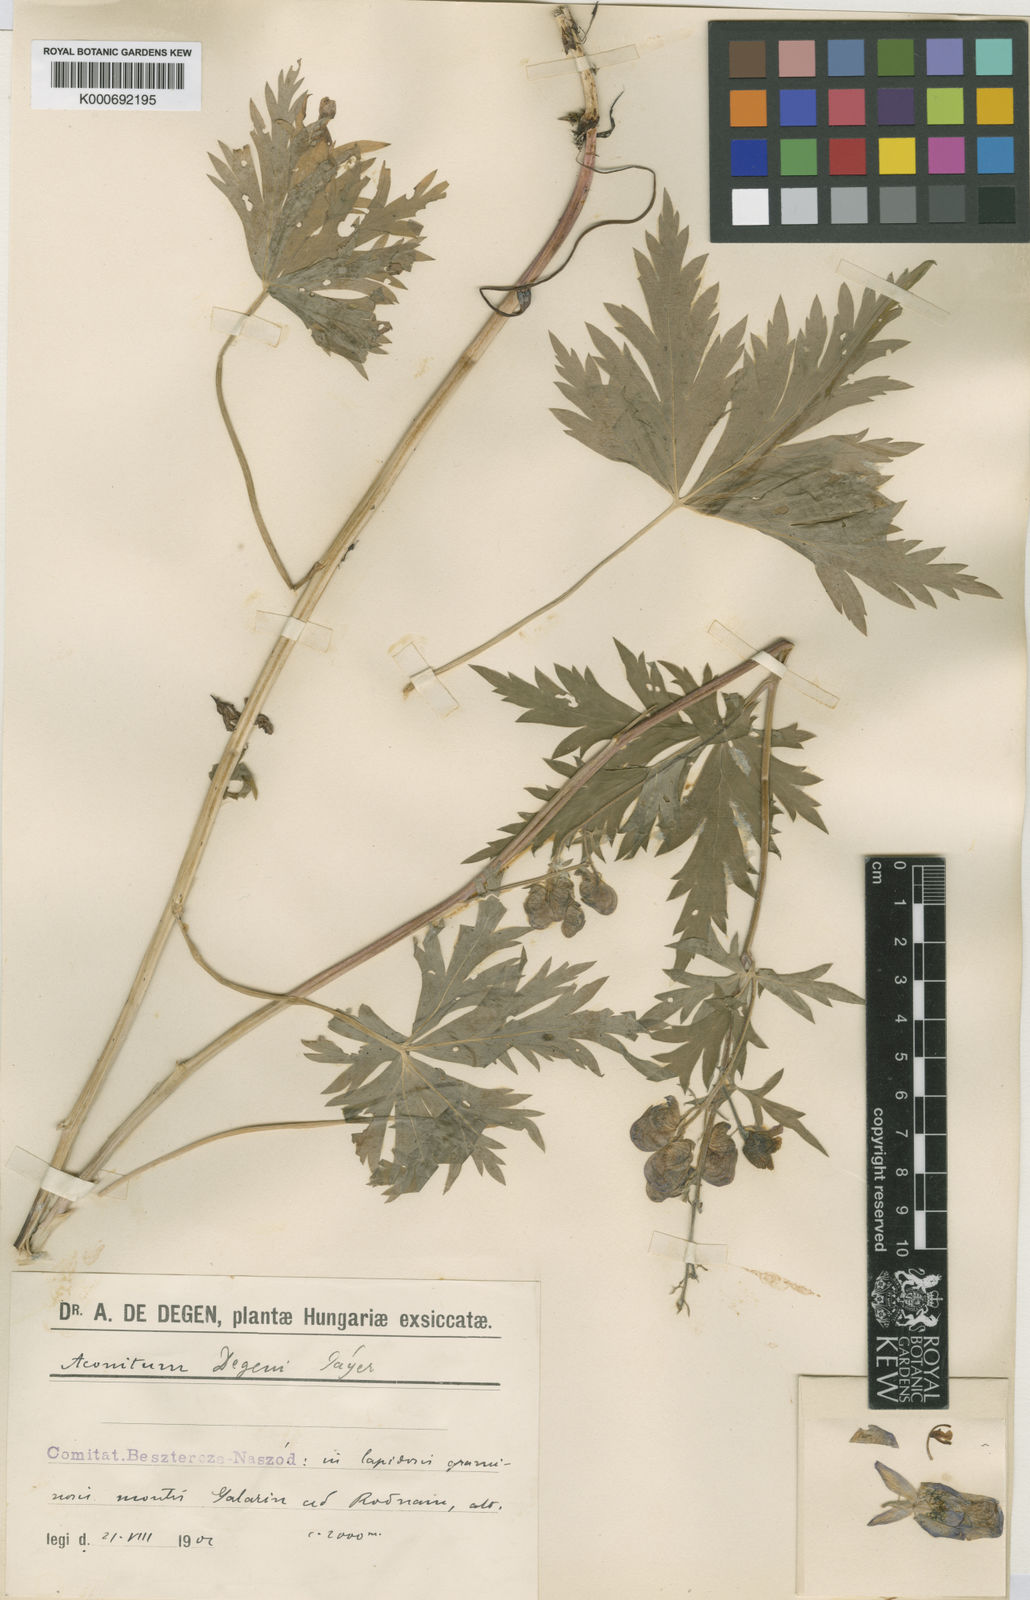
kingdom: Plantae
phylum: Tracheophyta
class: Magnoliopsida
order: Ranunculales
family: Ranunculaceae
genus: Aconitum
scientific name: Aconitum
